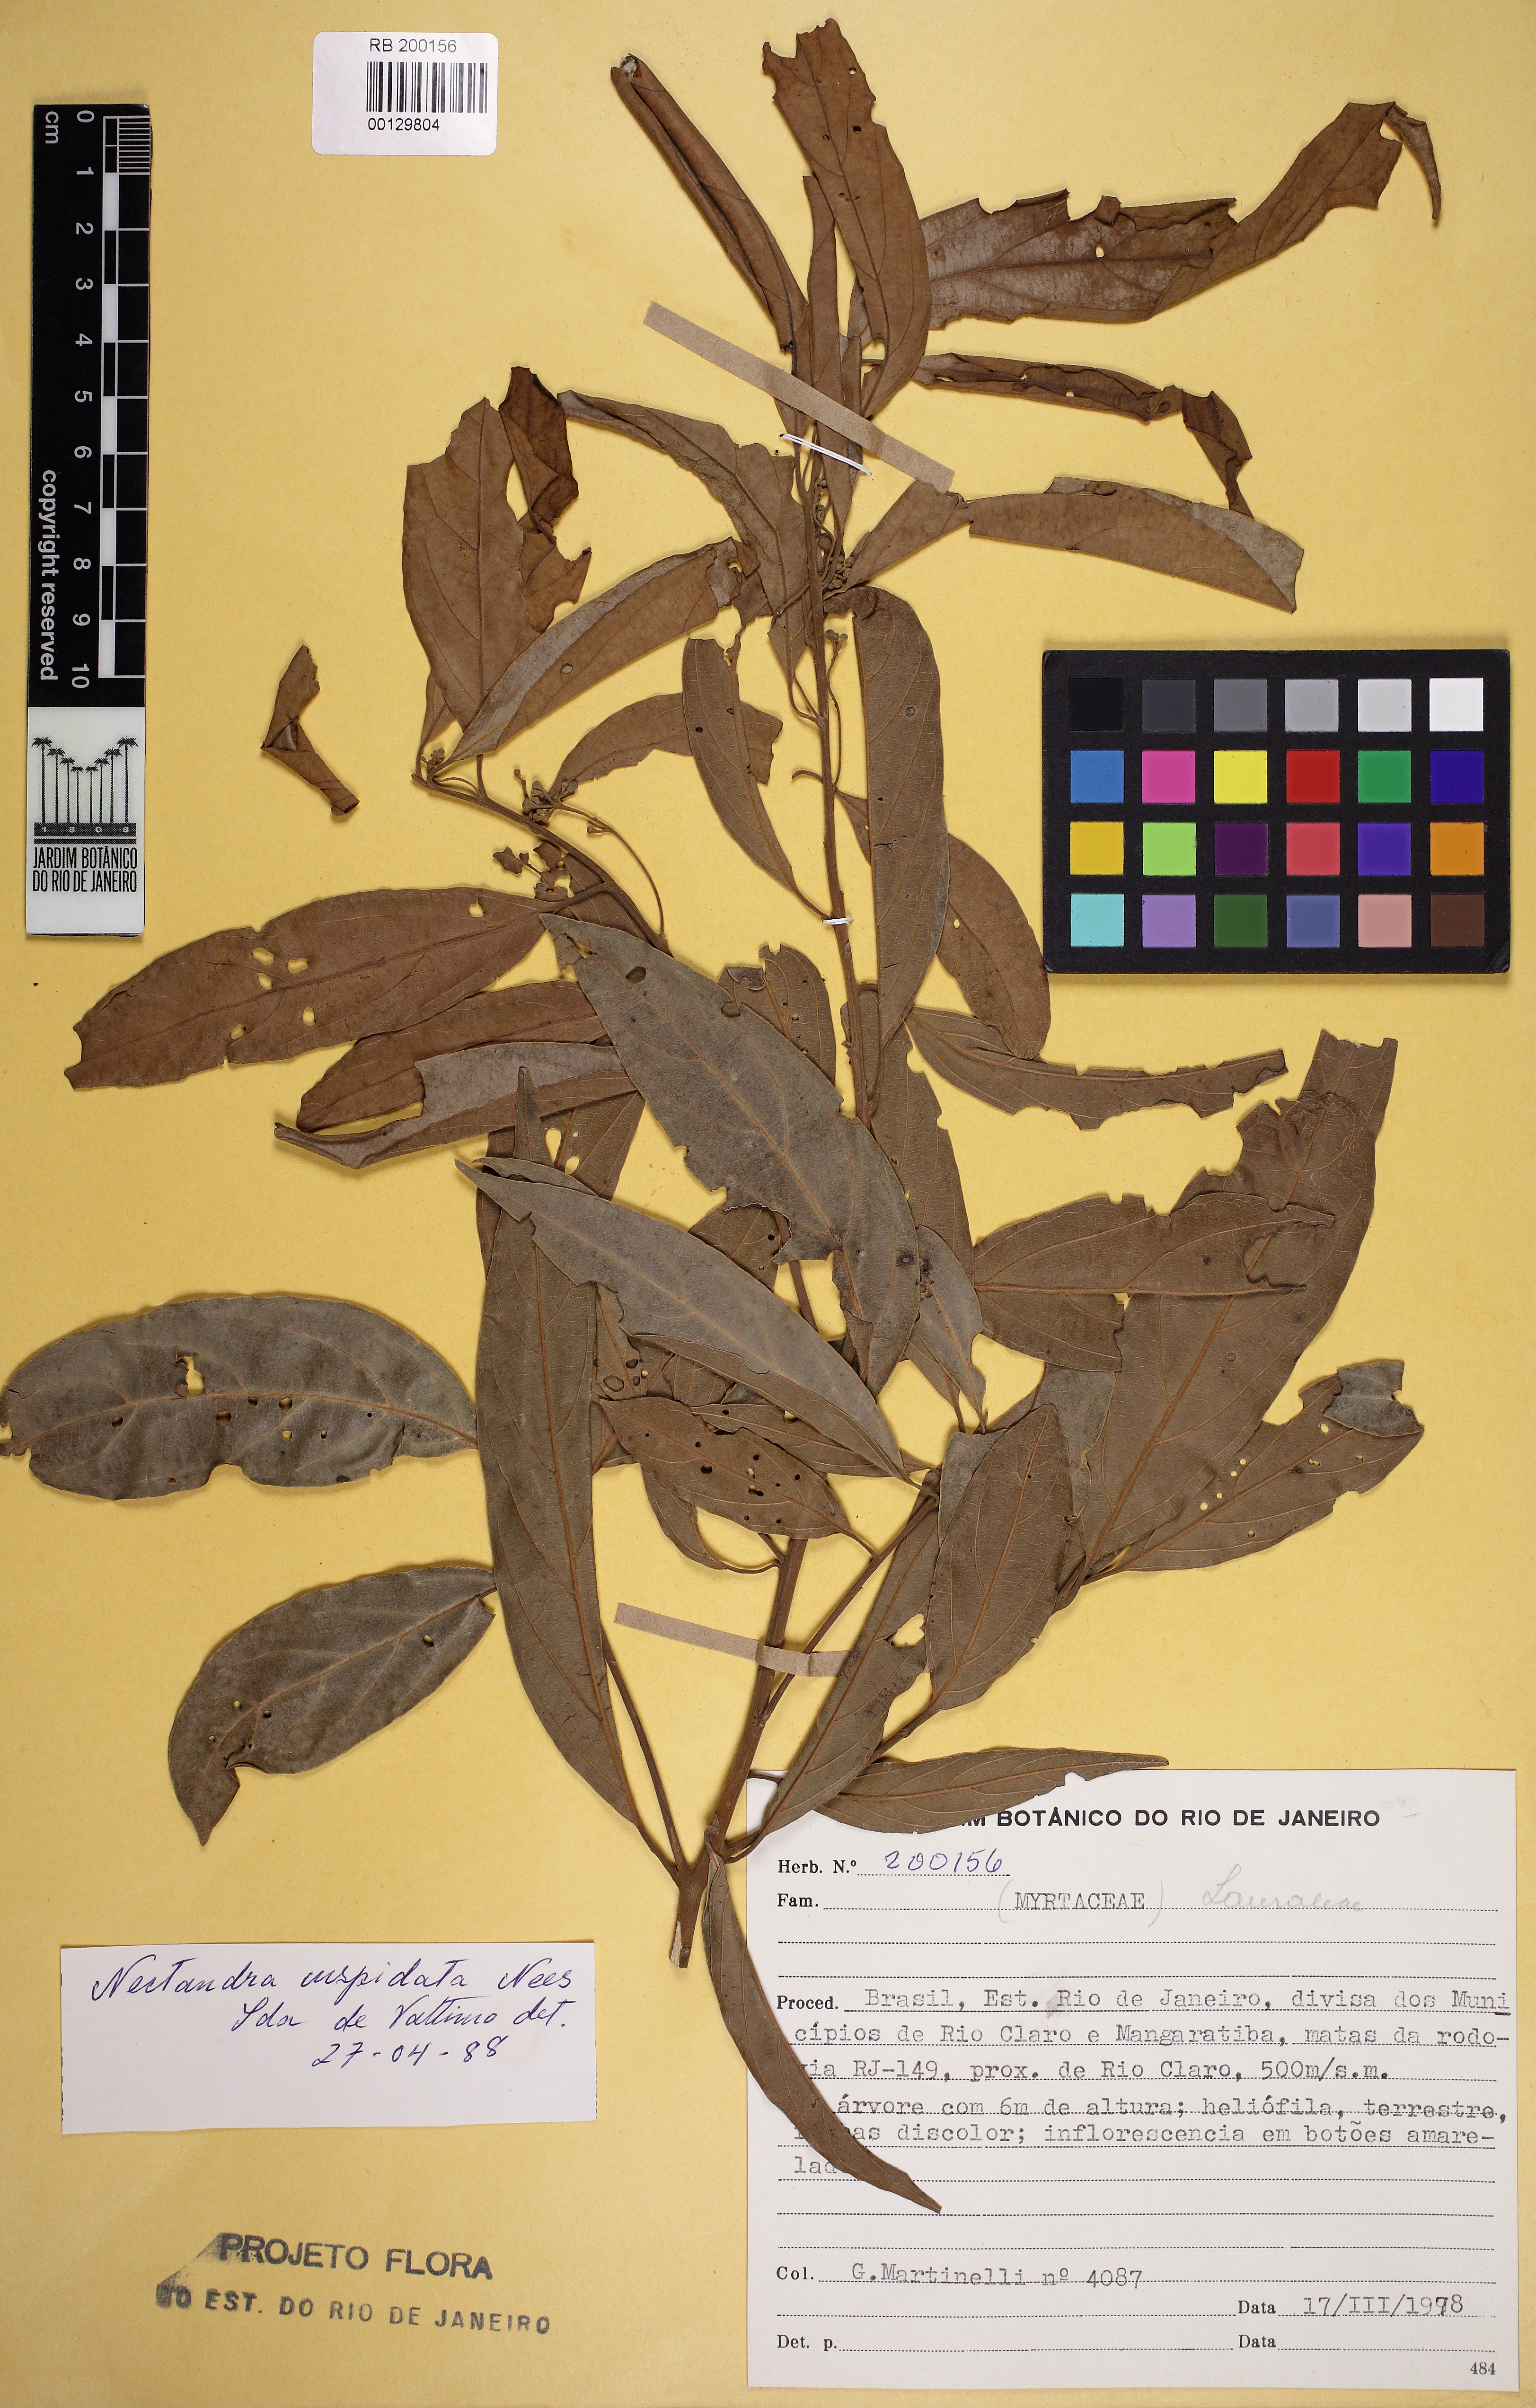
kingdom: Plantae
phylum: Tracheophyta
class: Magnoliopsida
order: Laurales
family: Lauraceae
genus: Nectandra
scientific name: Nectandra cuspidata
